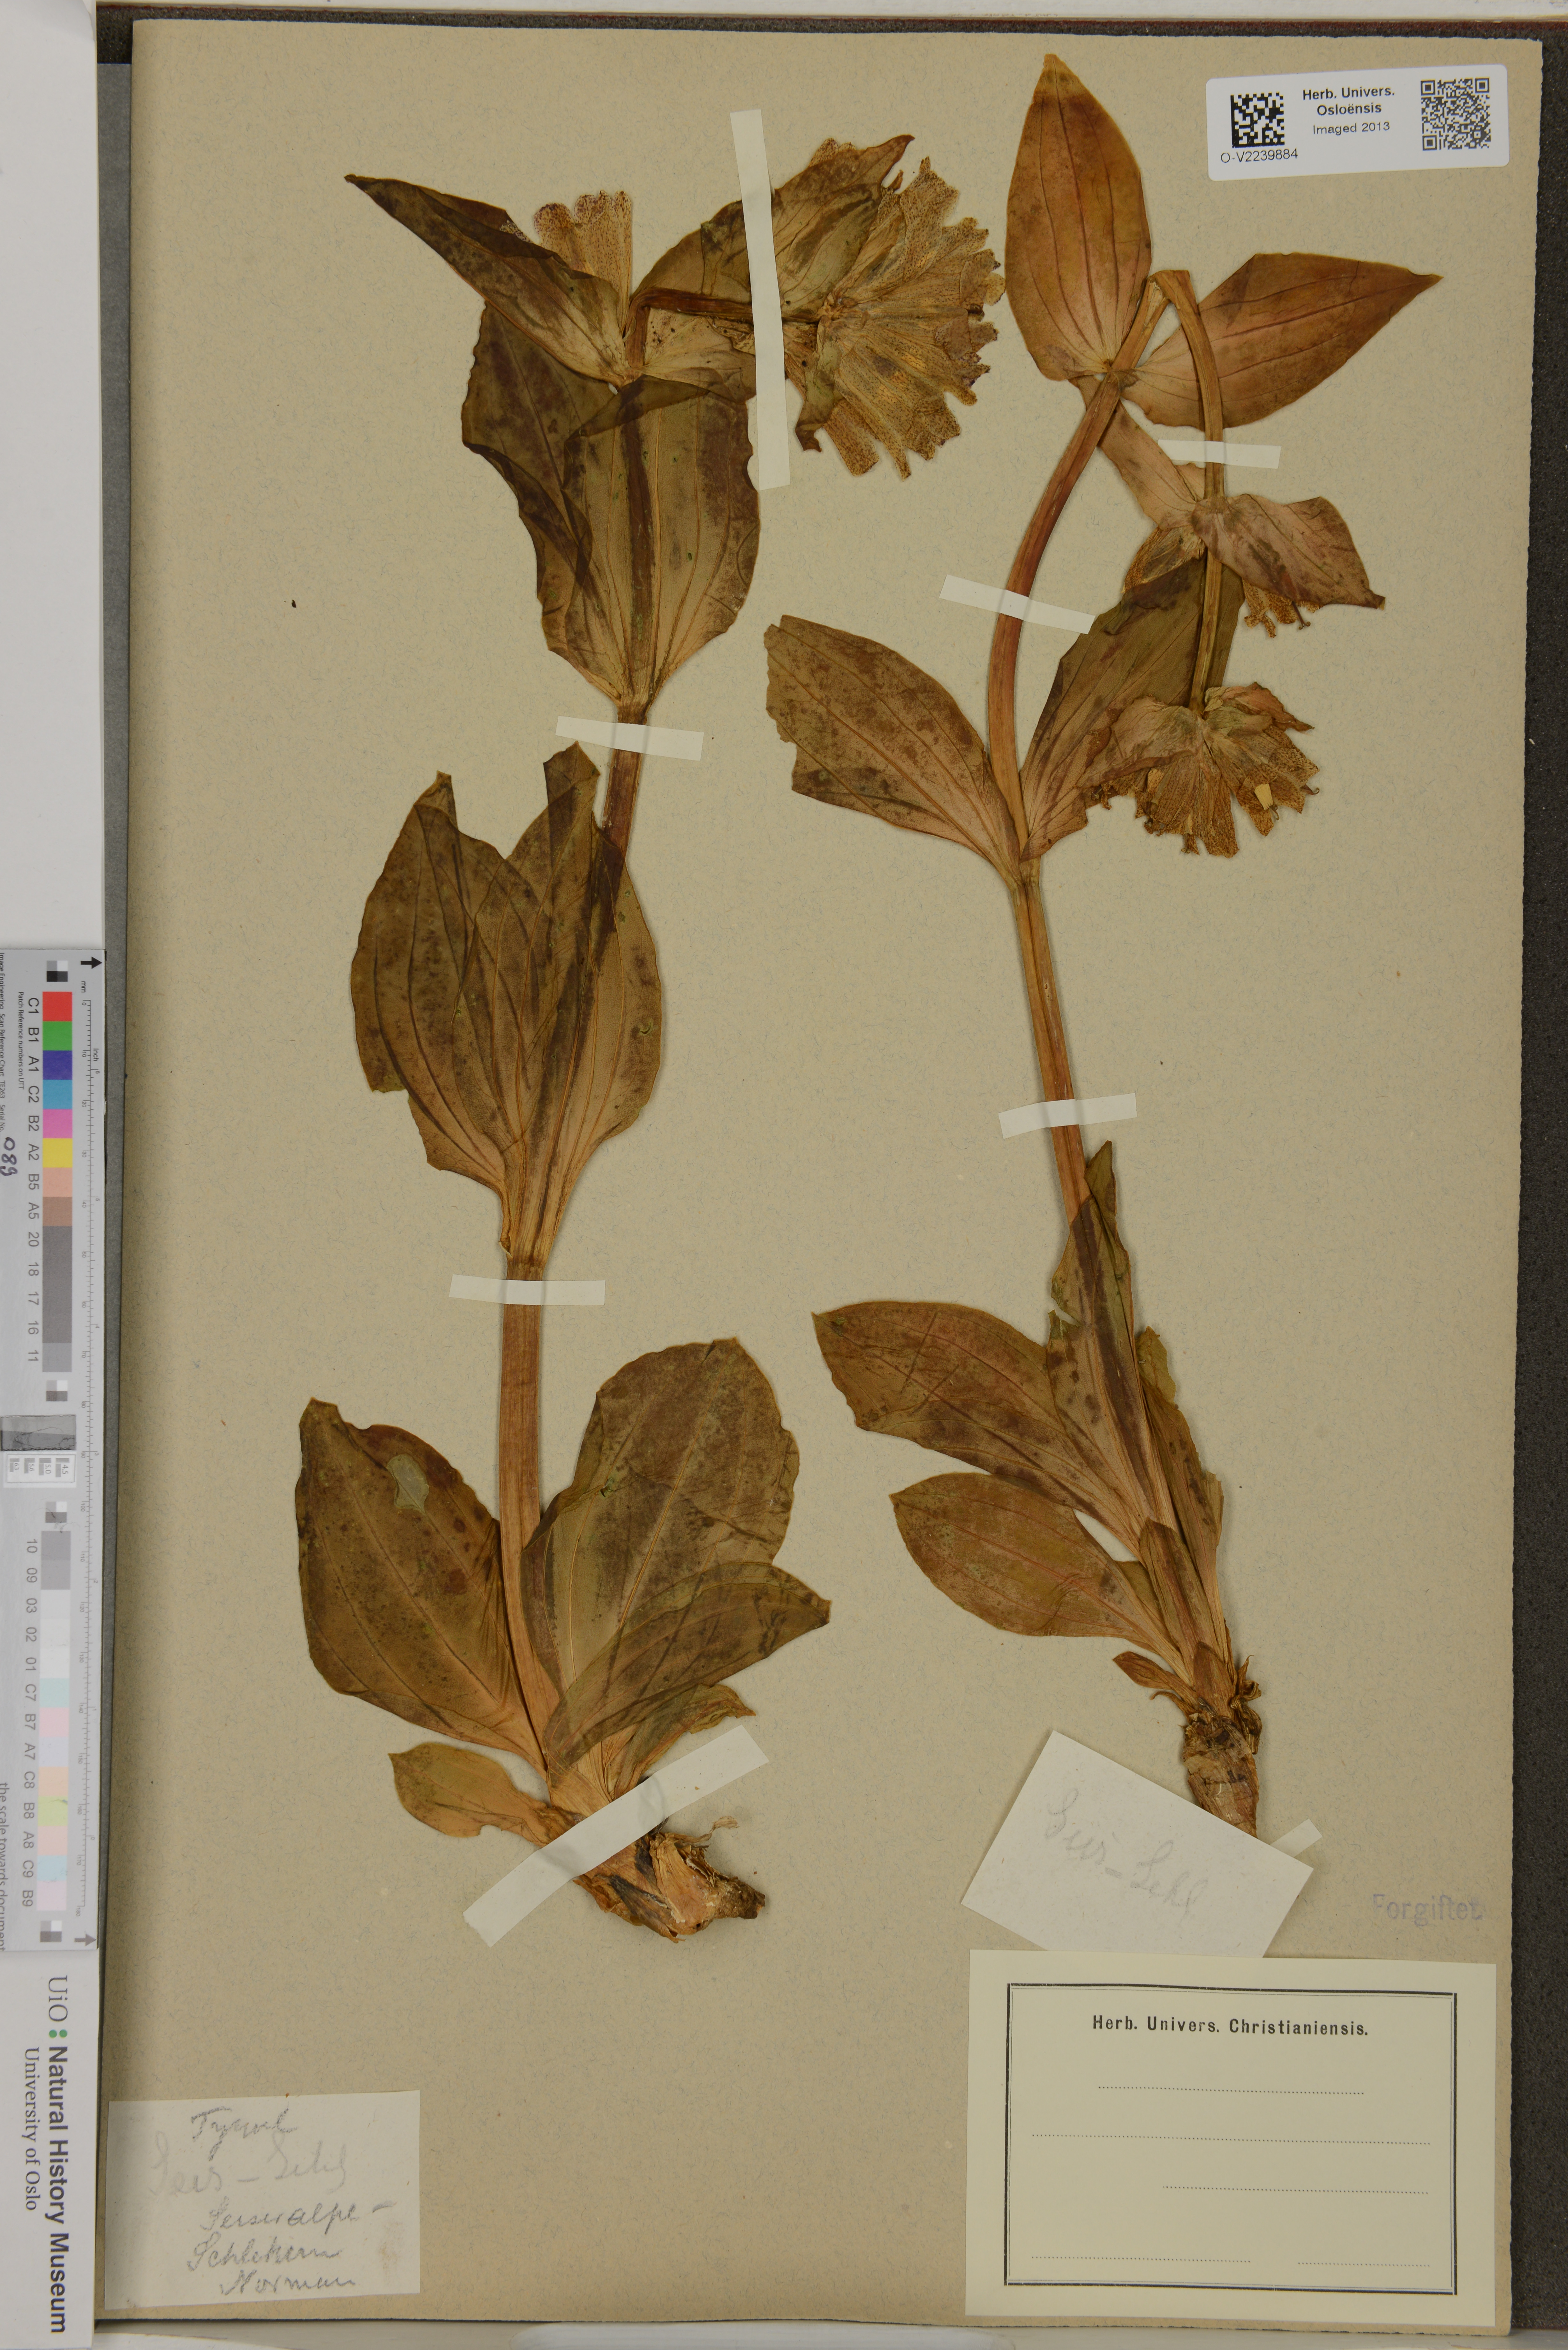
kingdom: Plantae
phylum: Tracheophyta
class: Magnoliopsida
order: Gentianales
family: Gentianaceae
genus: Gentiana
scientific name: Gentiana
